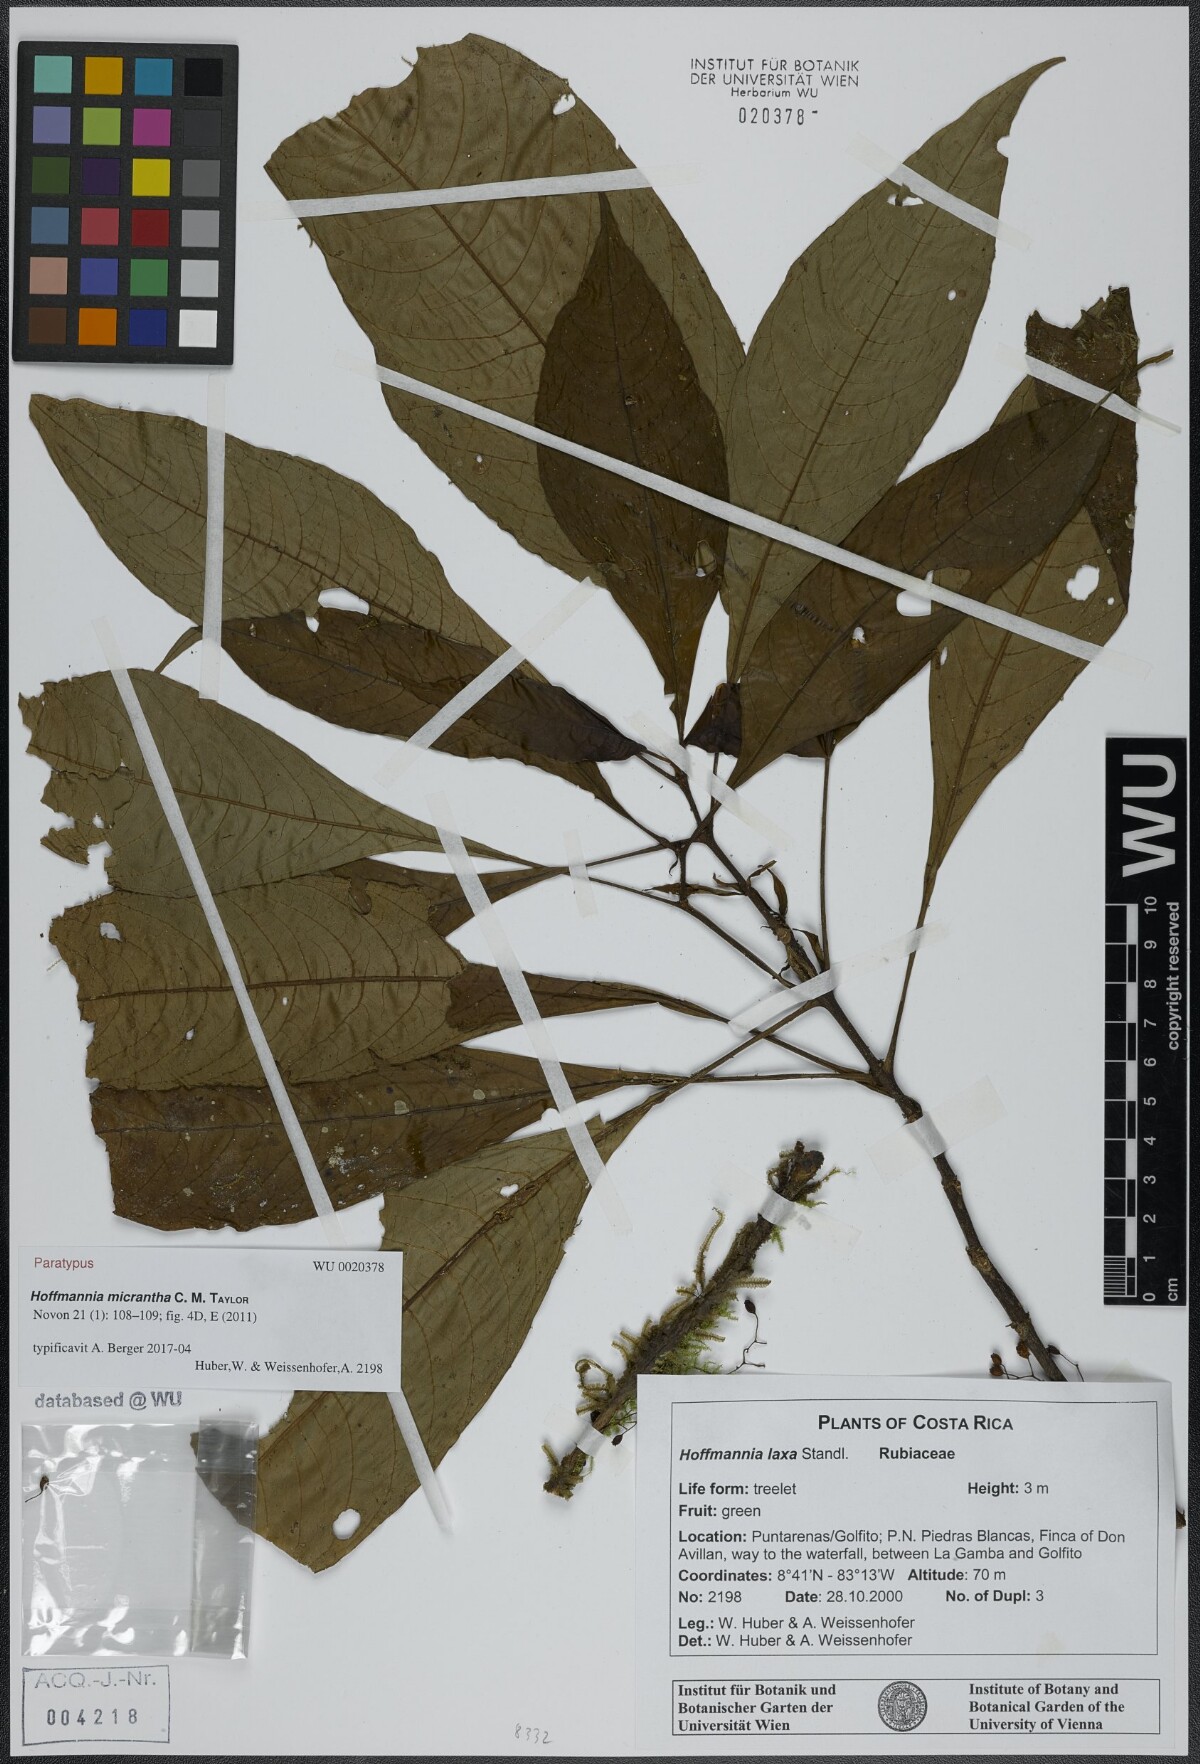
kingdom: Plantae
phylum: Tracheophyta
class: Magnoliopsida
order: Gentianales
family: Rubiaceae
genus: Hoffmannia
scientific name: Hoffmannia micrantha
